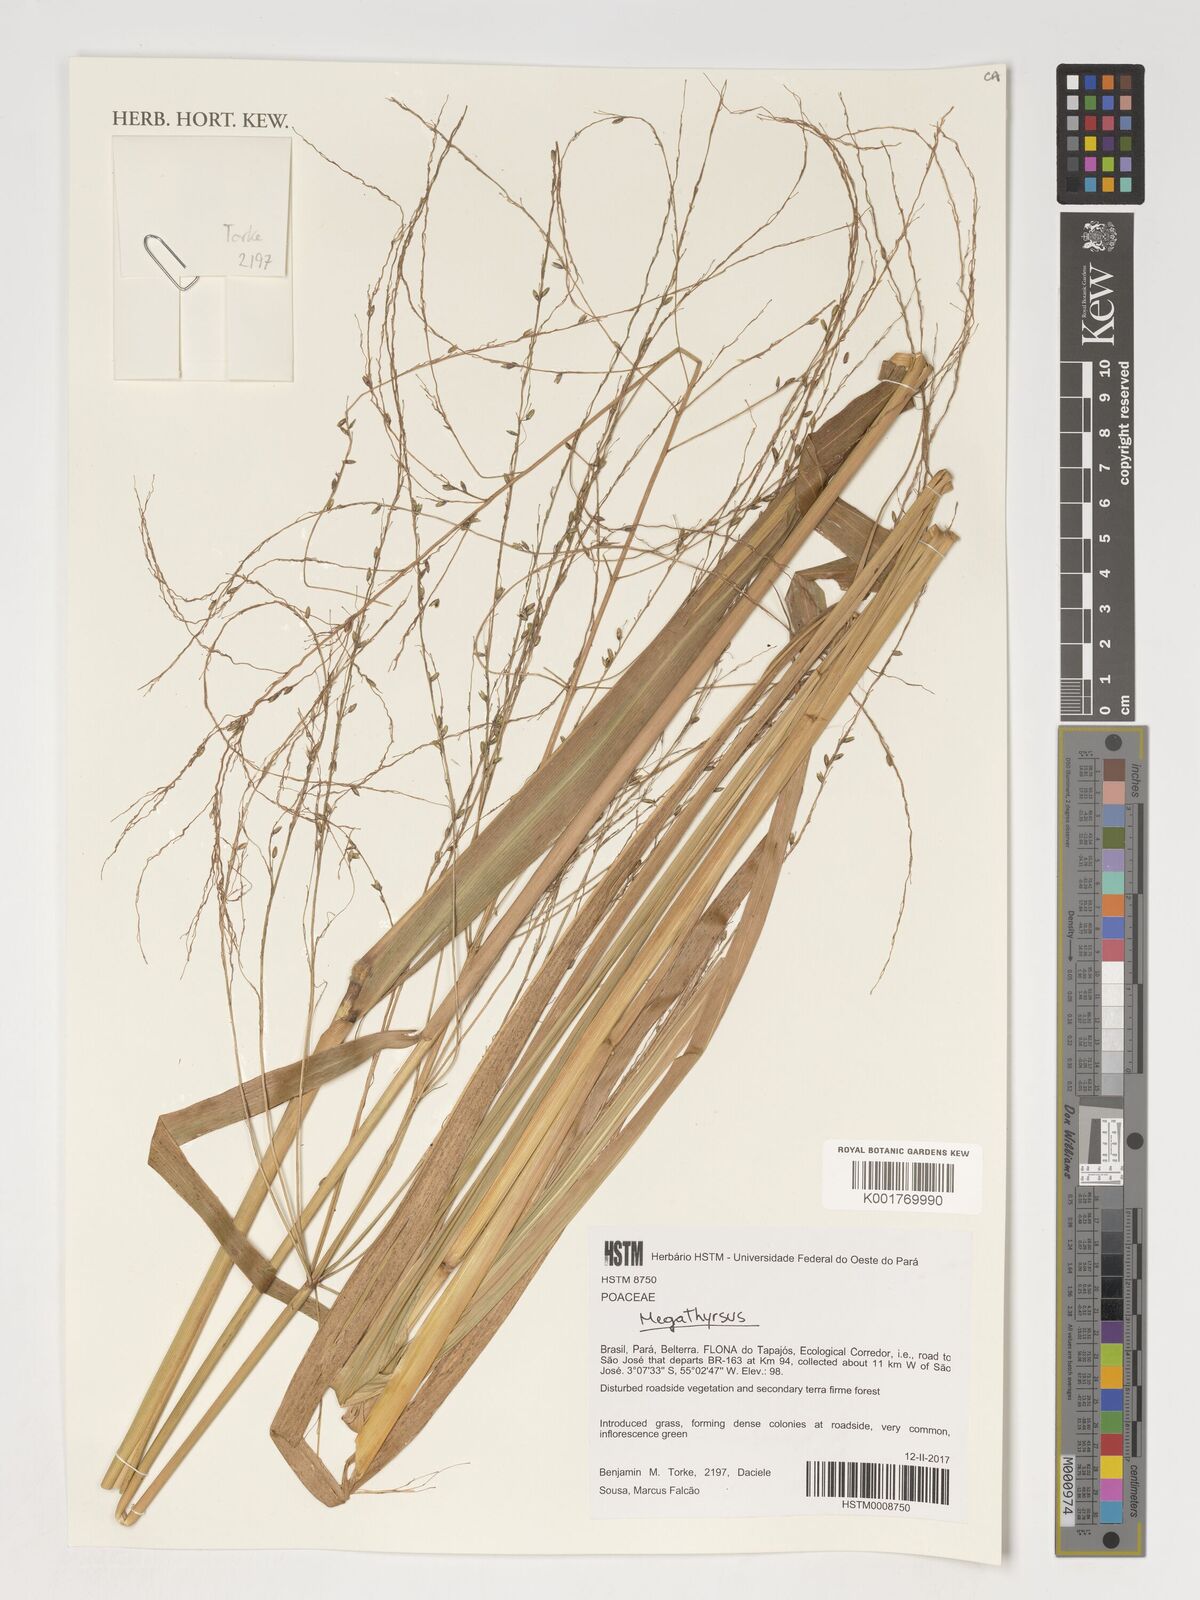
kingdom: Plantae
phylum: Tracheophyta
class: Liliopsida
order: Poales
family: Poaceae
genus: Megathyrsus
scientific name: Megathyrsus
